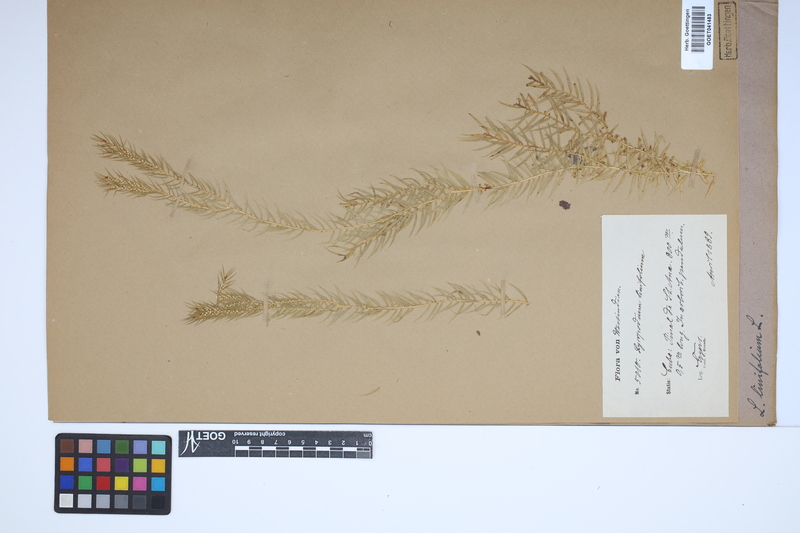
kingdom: Plantae
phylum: Tracheophyta
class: Lycopodiopsida
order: Lycopodiales
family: Lycopodiaceae
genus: Phlegmariurus
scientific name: Phlegmariurus linifolius
